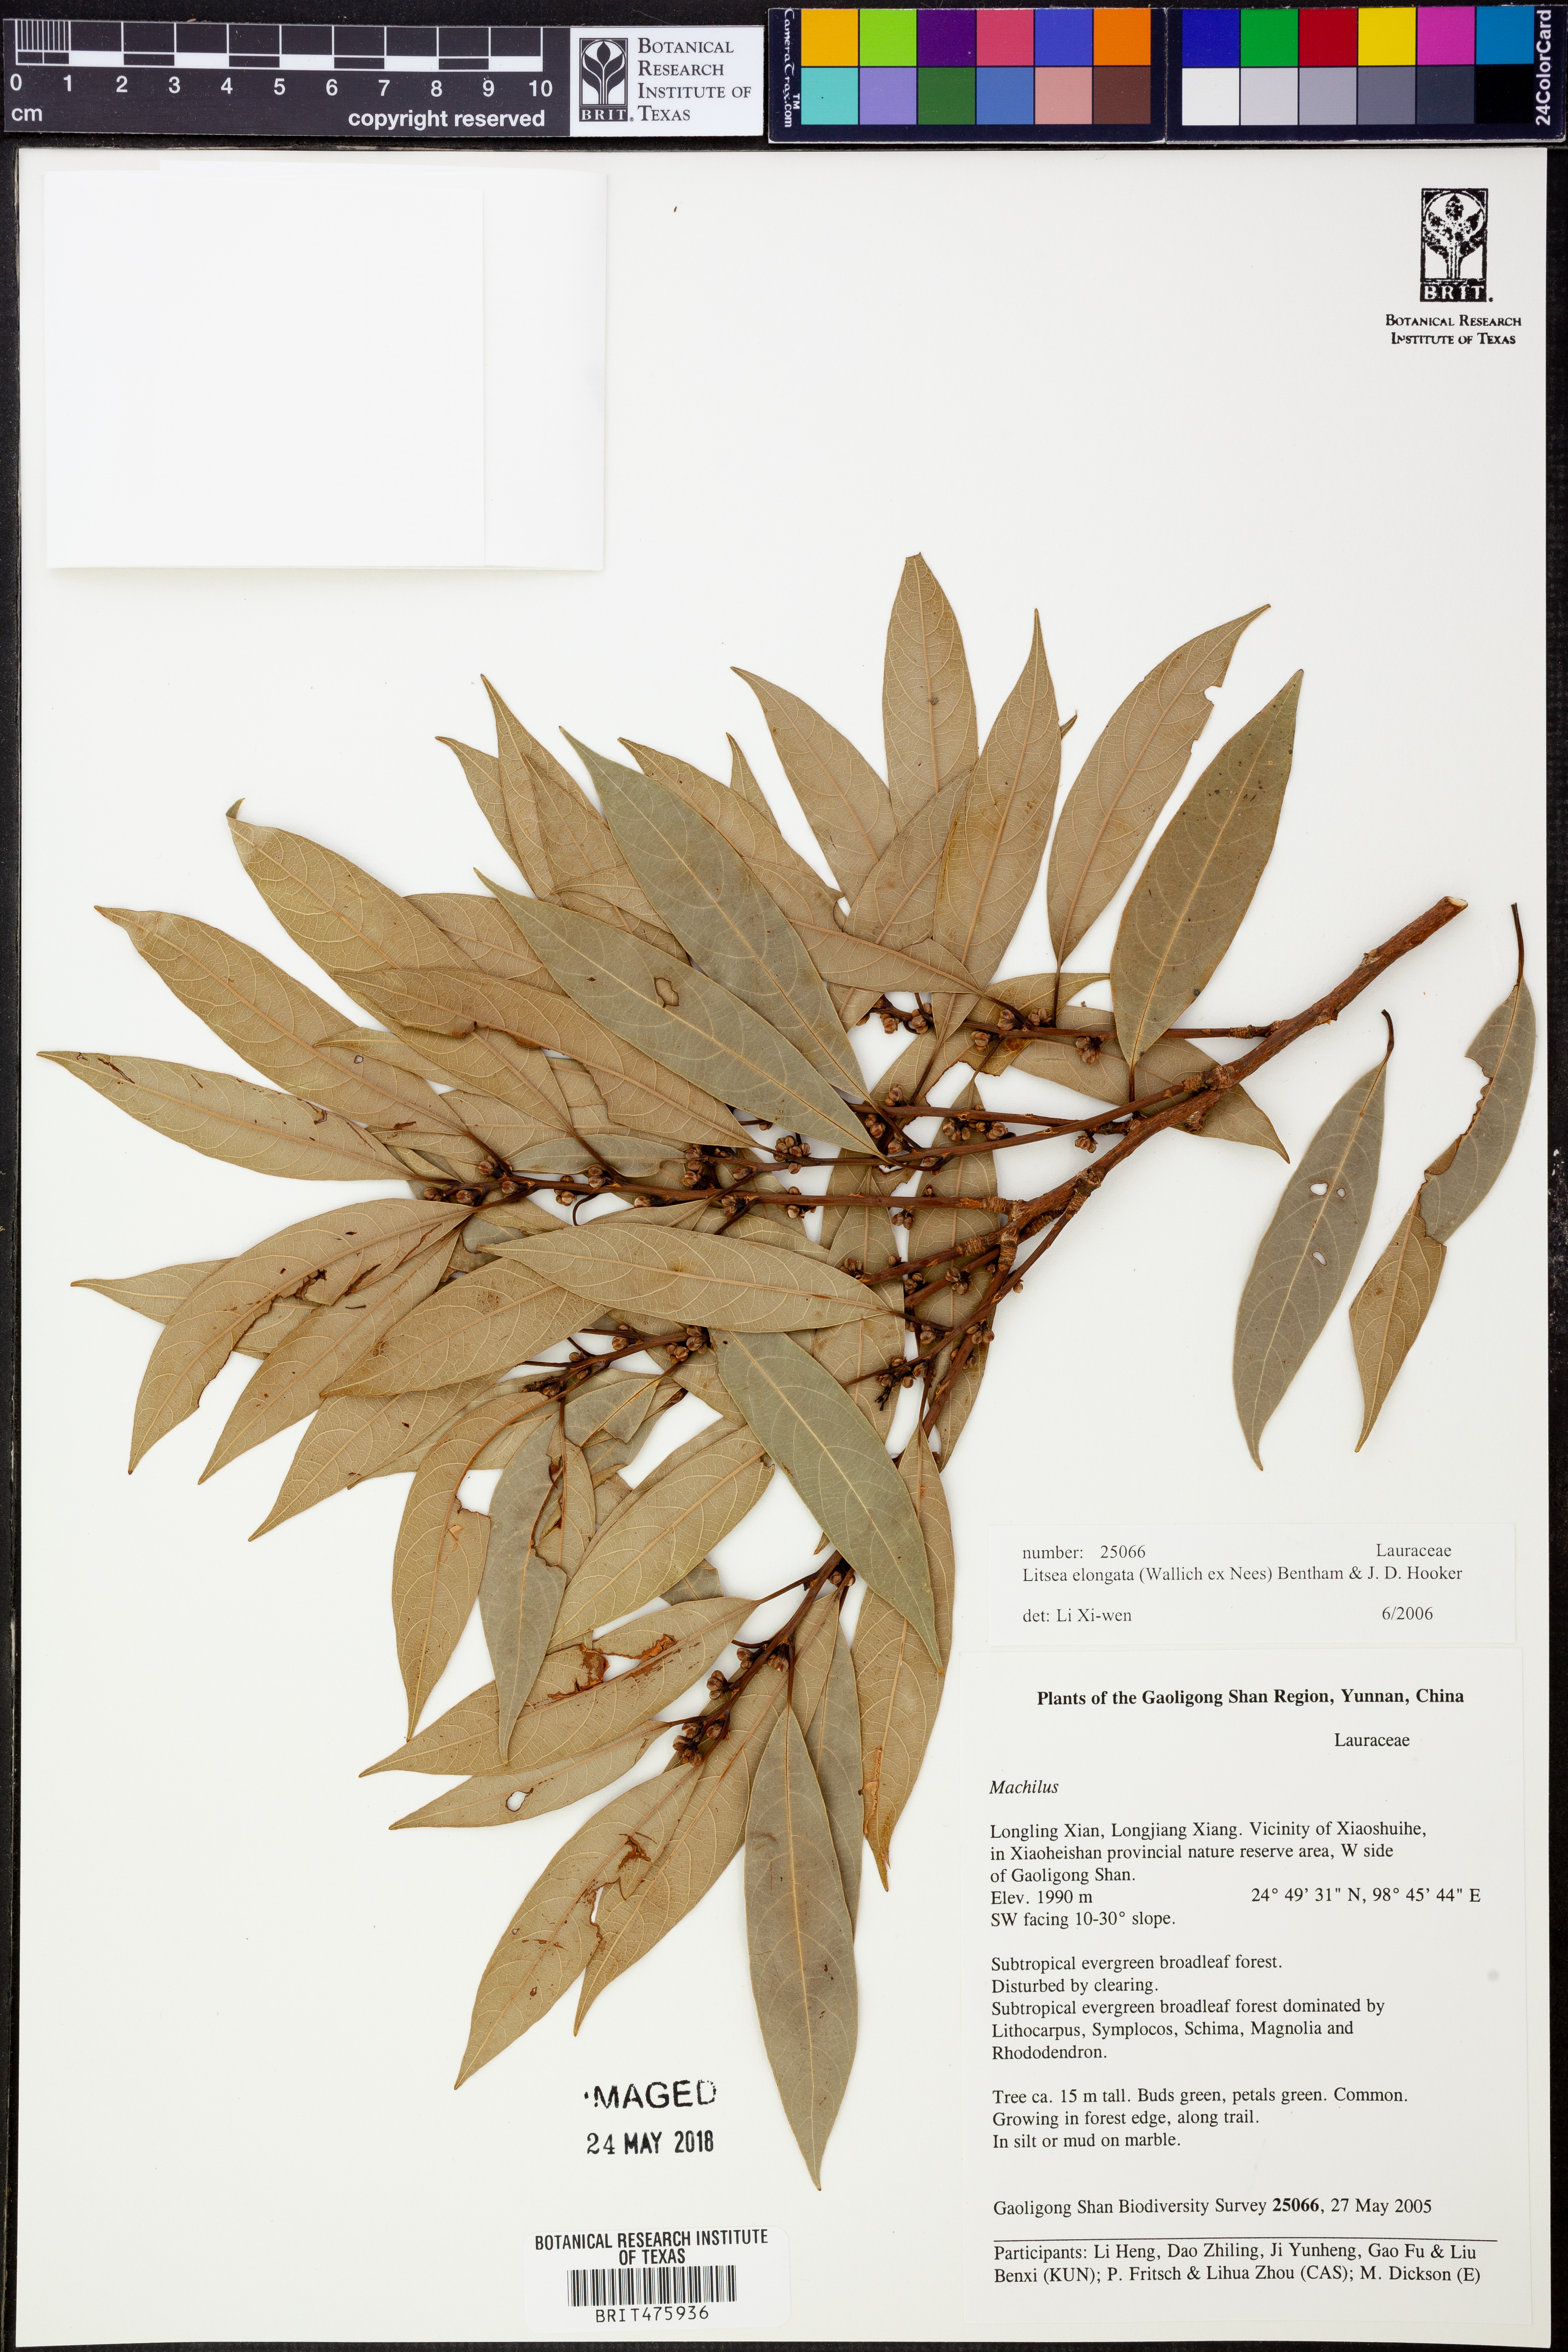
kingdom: Plantae
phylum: Tracheophyta
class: Magnoliopsida
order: Laurales
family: Lauraceae
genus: Litsea
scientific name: Litsea elongata
